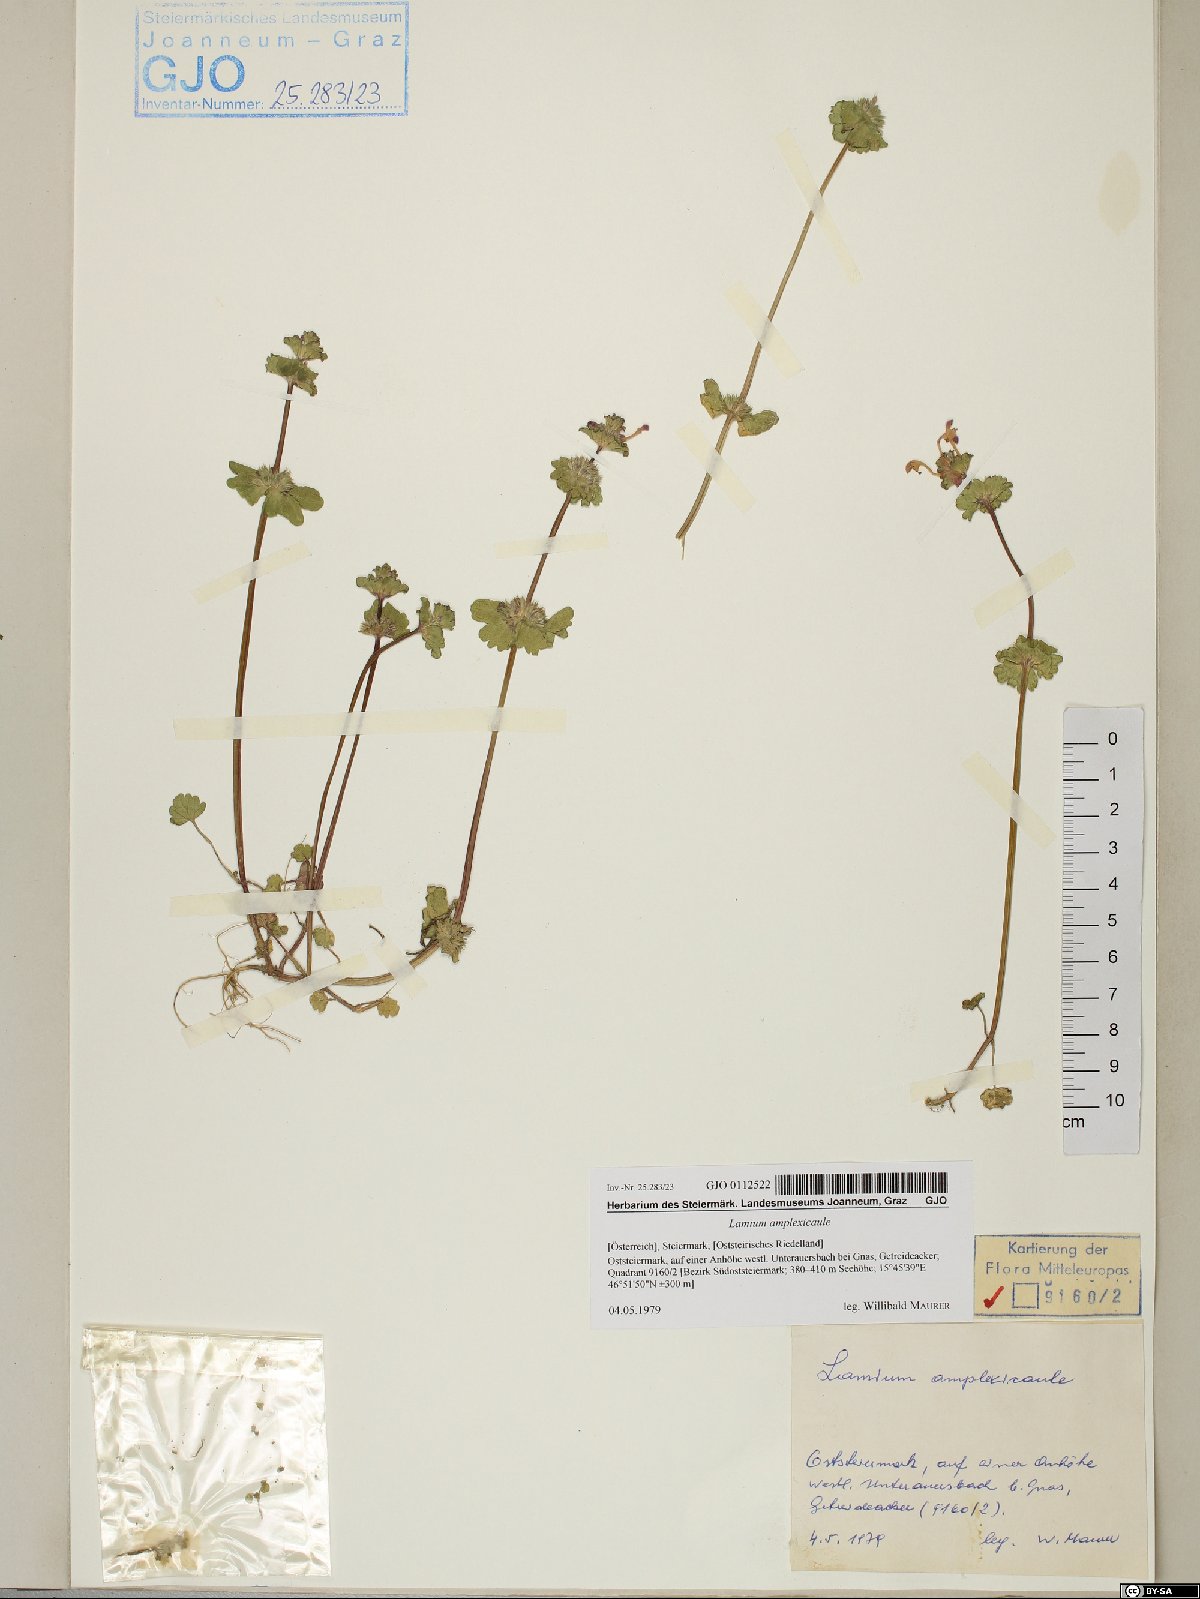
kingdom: Plantae
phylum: Tracheophyta
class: Magnoliopsida
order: Lamiales
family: Lamiaceae
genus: Lamium
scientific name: Lamium amplexicaule
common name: Henbit dead-nettle
